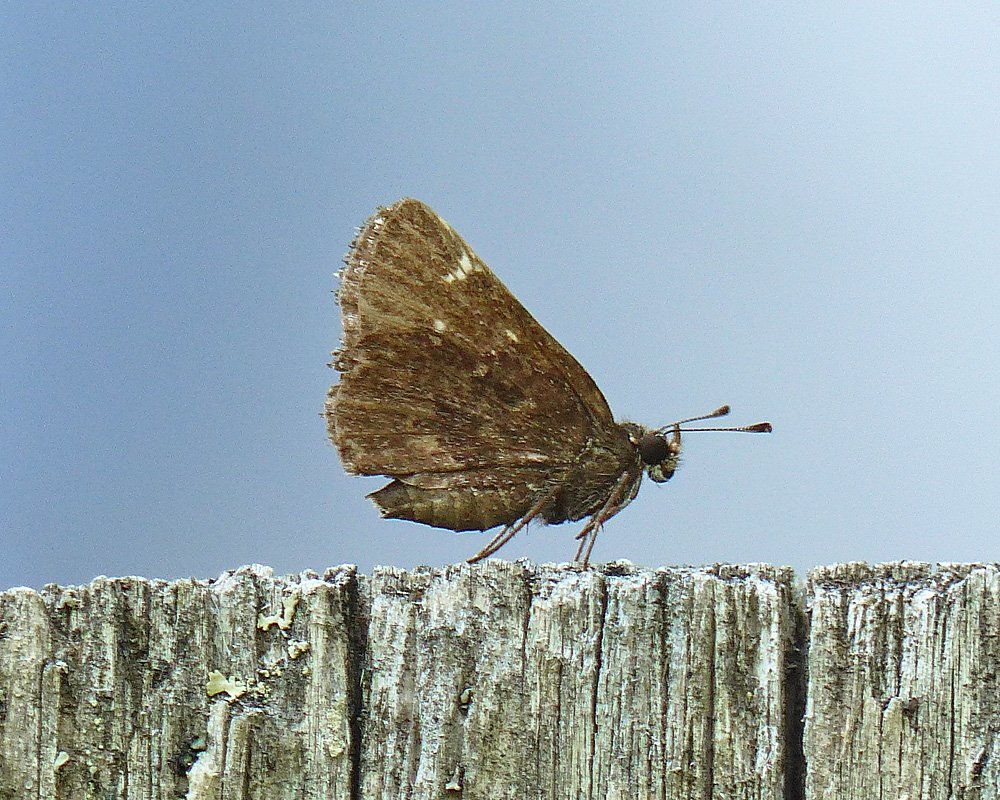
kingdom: Animalia
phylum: Arthropoda
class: Insecta
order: Lepidoptera
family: Hesperiidae
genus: Mastor
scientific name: Mastor vialis
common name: Common Roadside-Skipper
